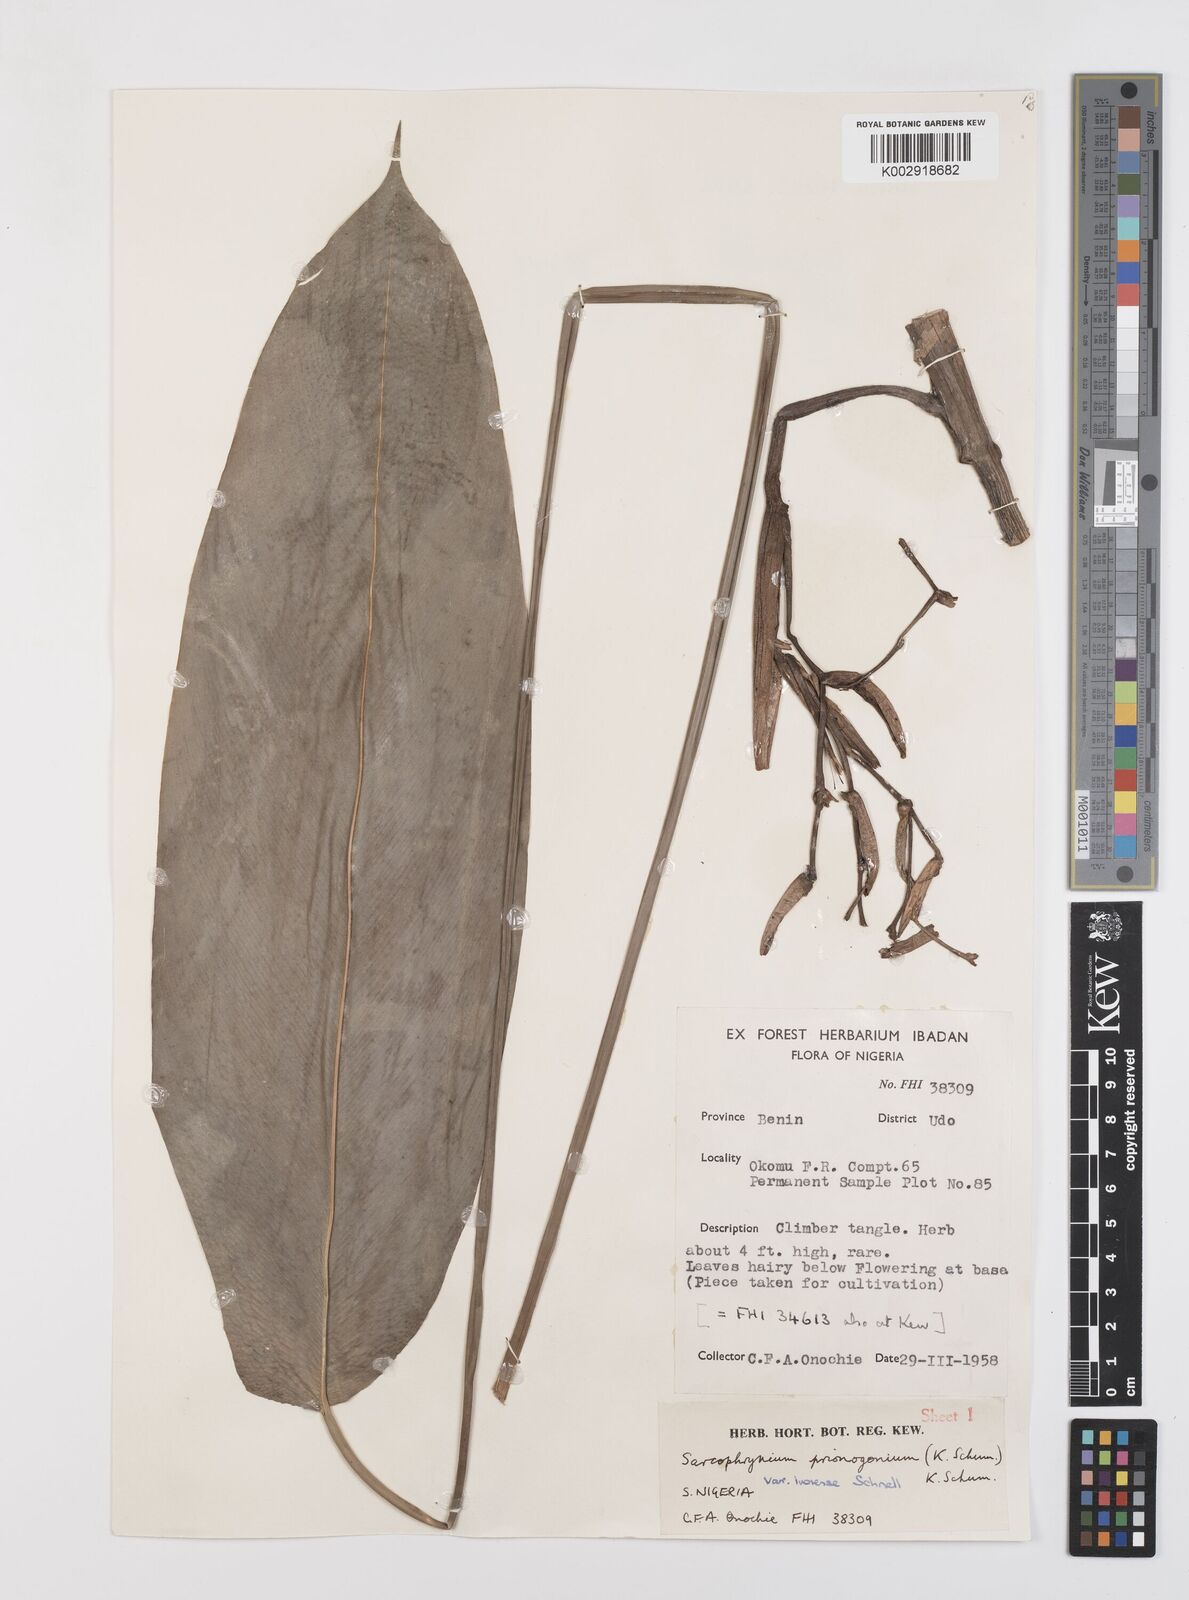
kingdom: Plantae
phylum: Tracheophyta
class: Liliopsida
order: Zingiberales
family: Marantaceae
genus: Sarcophrynium
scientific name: Sarcophrynium prionogonium
